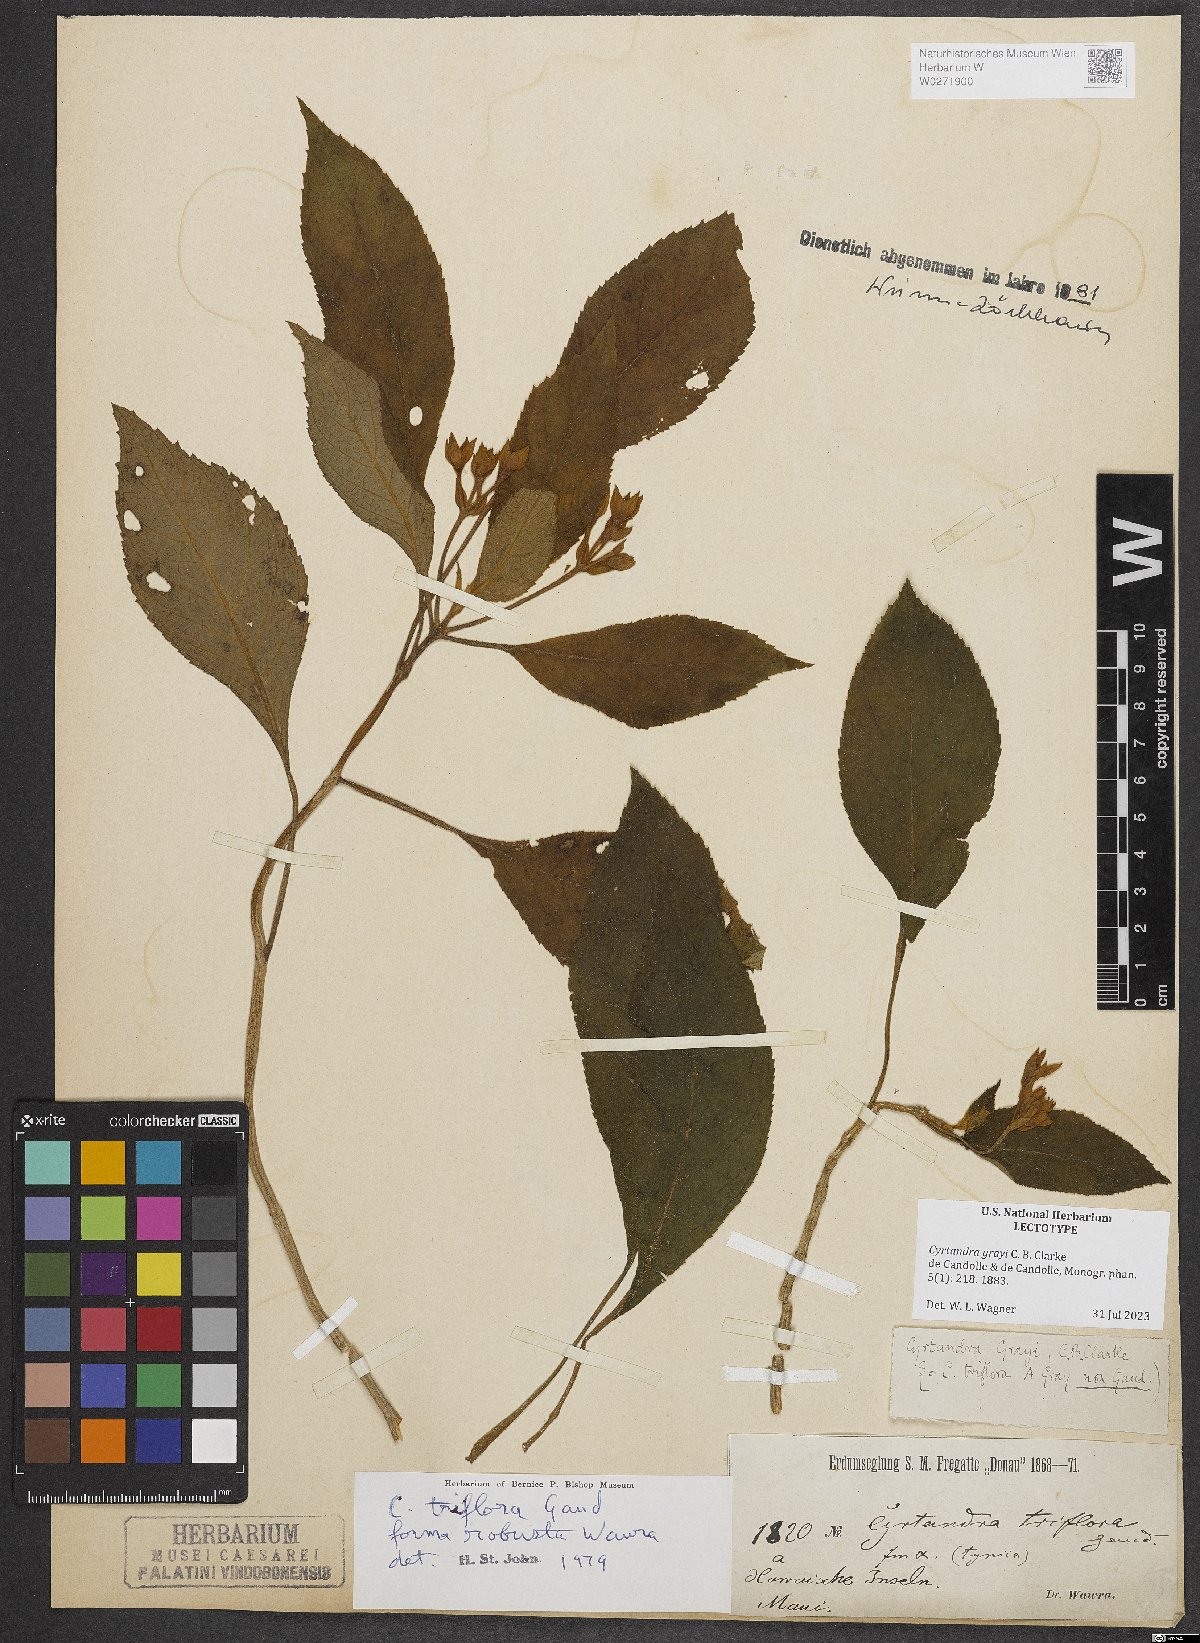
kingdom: Plantae
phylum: Tracheophyta
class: Magnoliopsida
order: Lamiales
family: Gesneriaceae
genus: Cyrtandra
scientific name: Cyrtandra grayi
